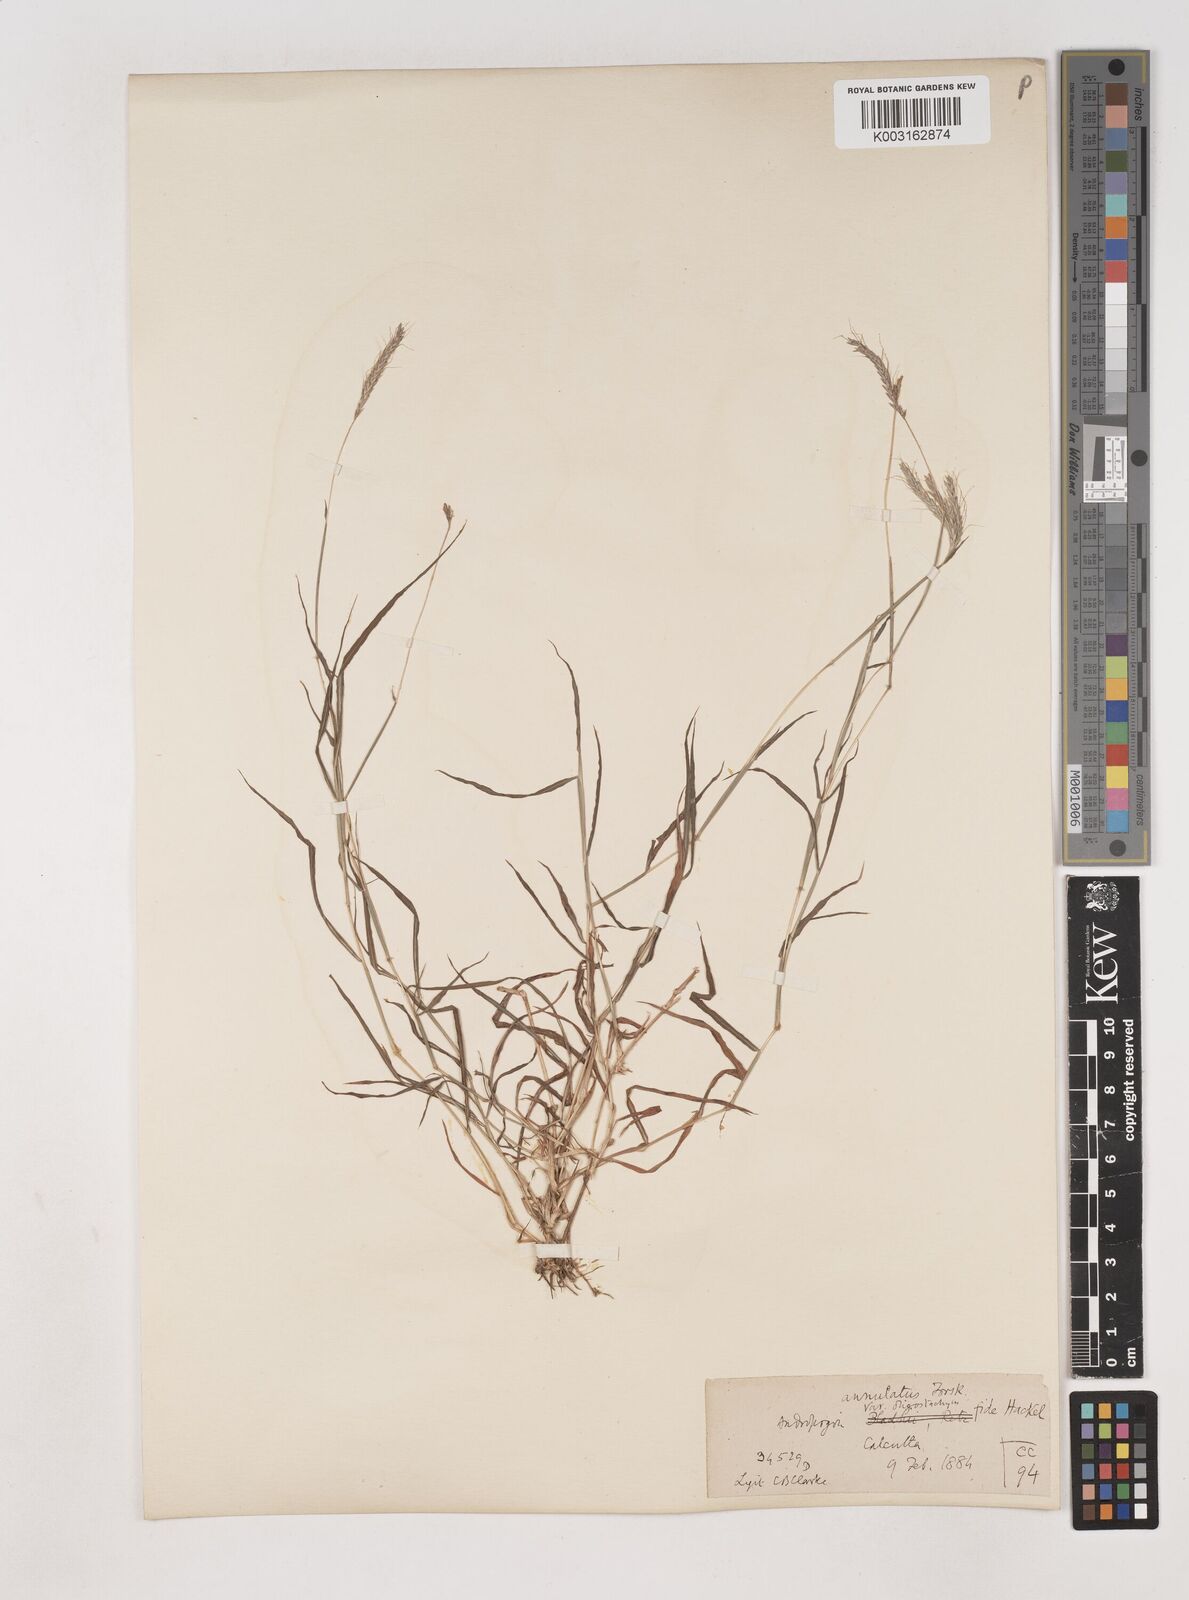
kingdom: Plantae
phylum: Tracheophyta
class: Liliopsida
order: Poales
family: Poaceae
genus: Dichanthium
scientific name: Dichanthium annulatum
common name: Kleberg's bluestem
